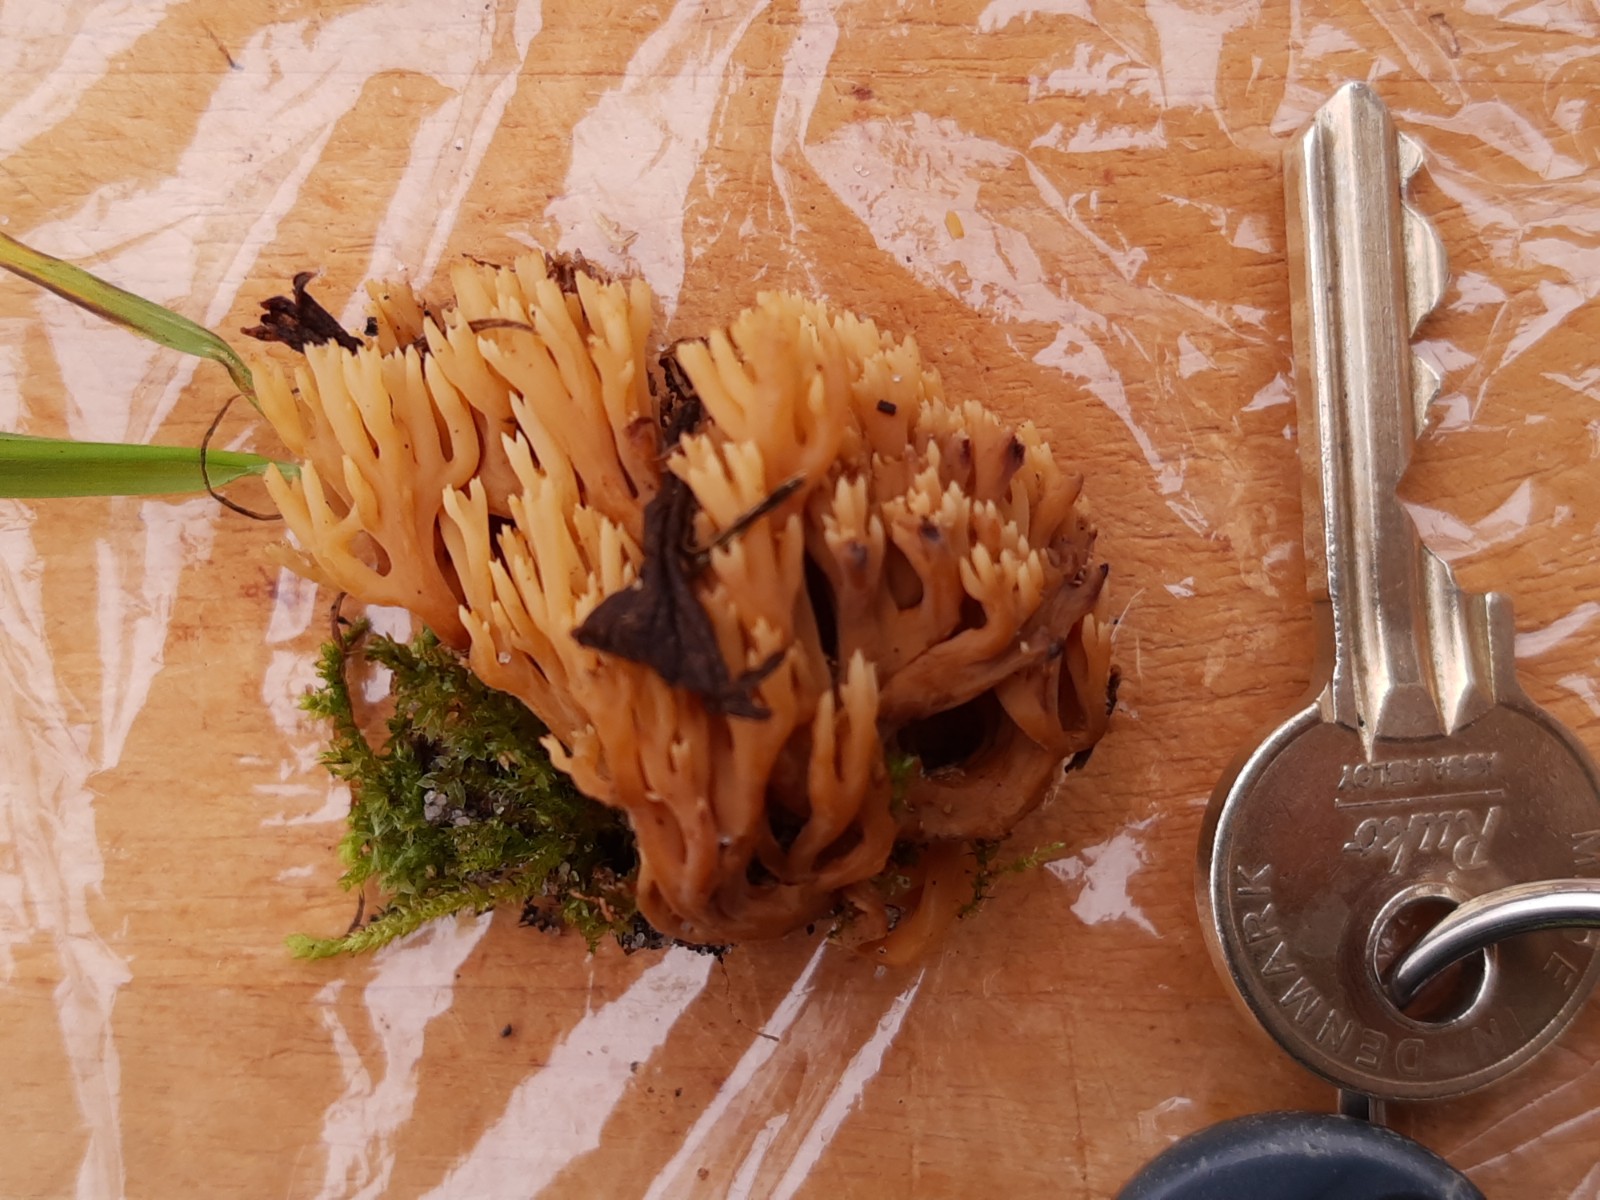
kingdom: Fungi
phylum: Basidiomycota
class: Agaricomycetes
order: Gomphales
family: Gomphaceae
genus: Phaeoclavulina
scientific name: Phaeoclavulina flaccida
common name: spinkel koralsvamp
